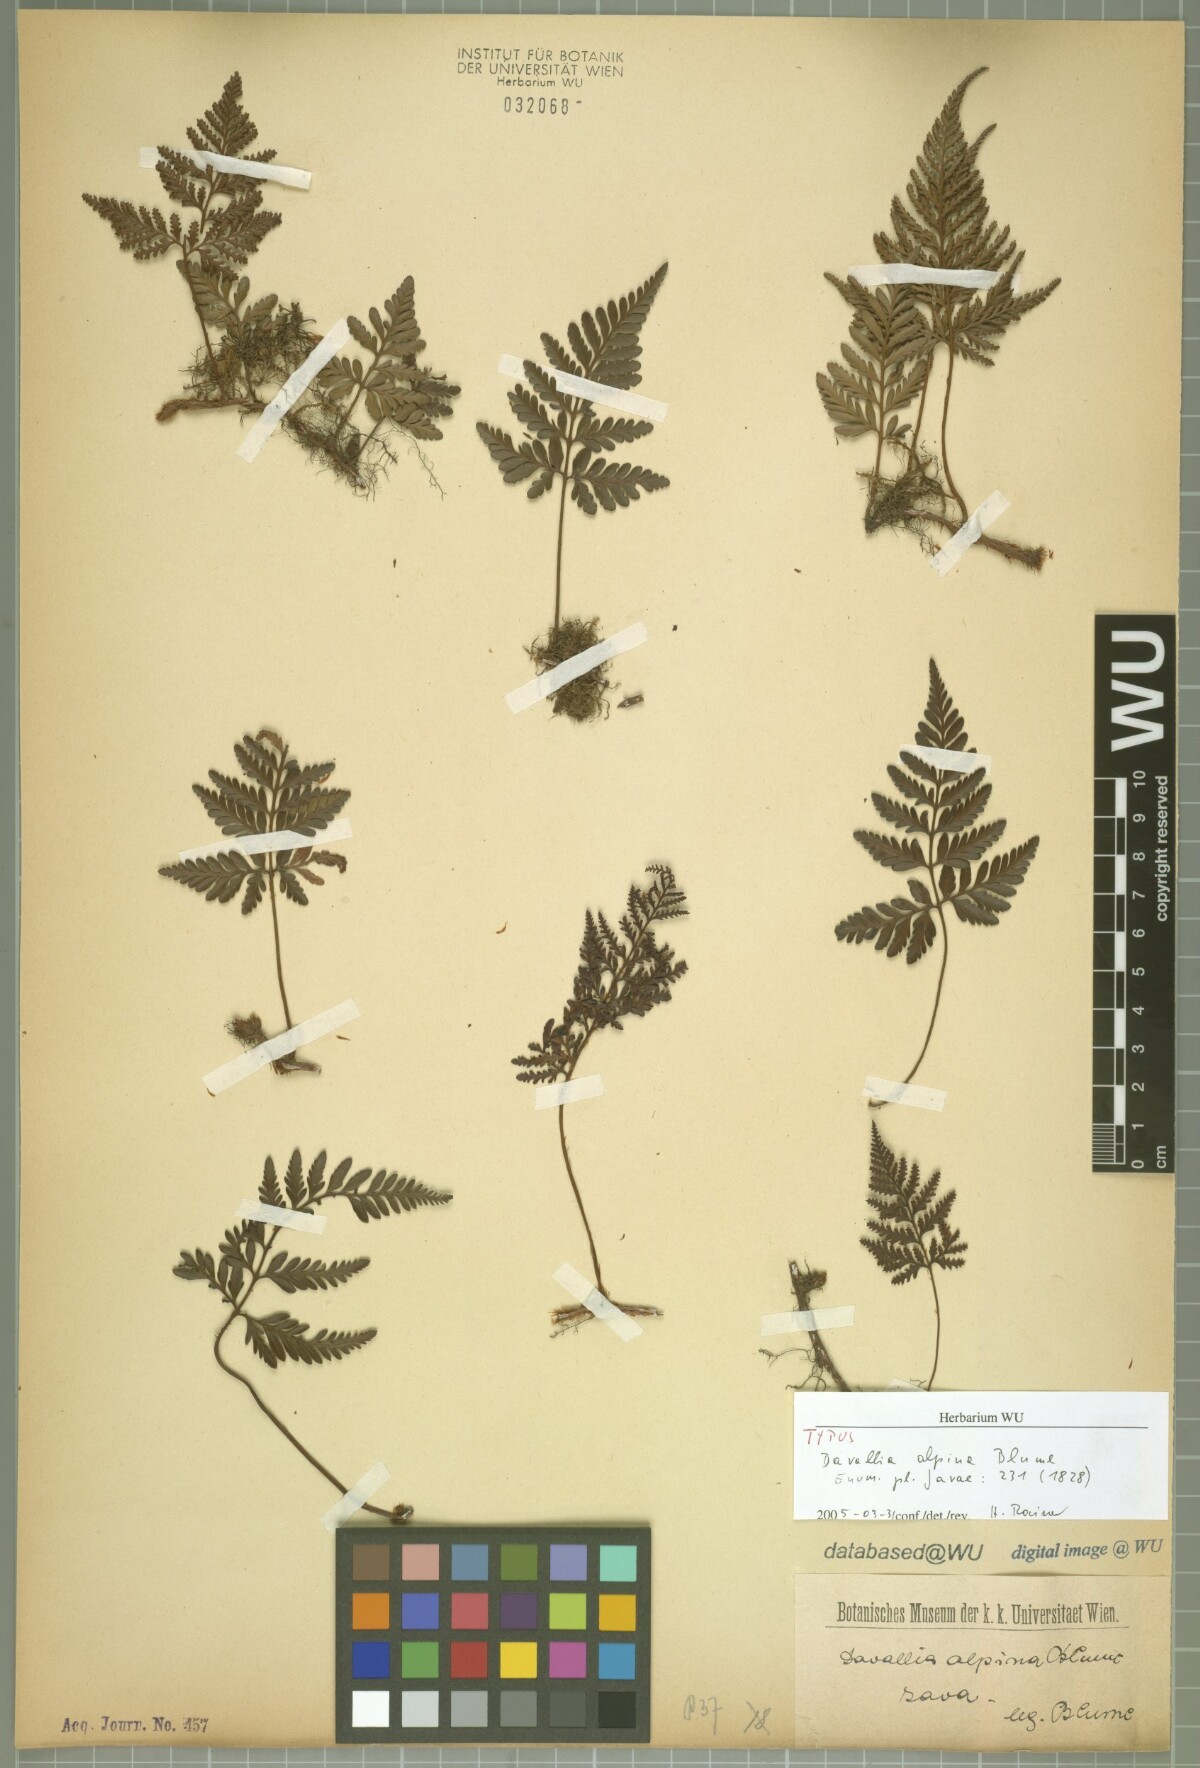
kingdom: Plantae
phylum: Tracheophyta
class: Polypodiopsida
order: Polypodiales
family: Davalliaceae
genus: Davallia
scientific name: Davallia repens
